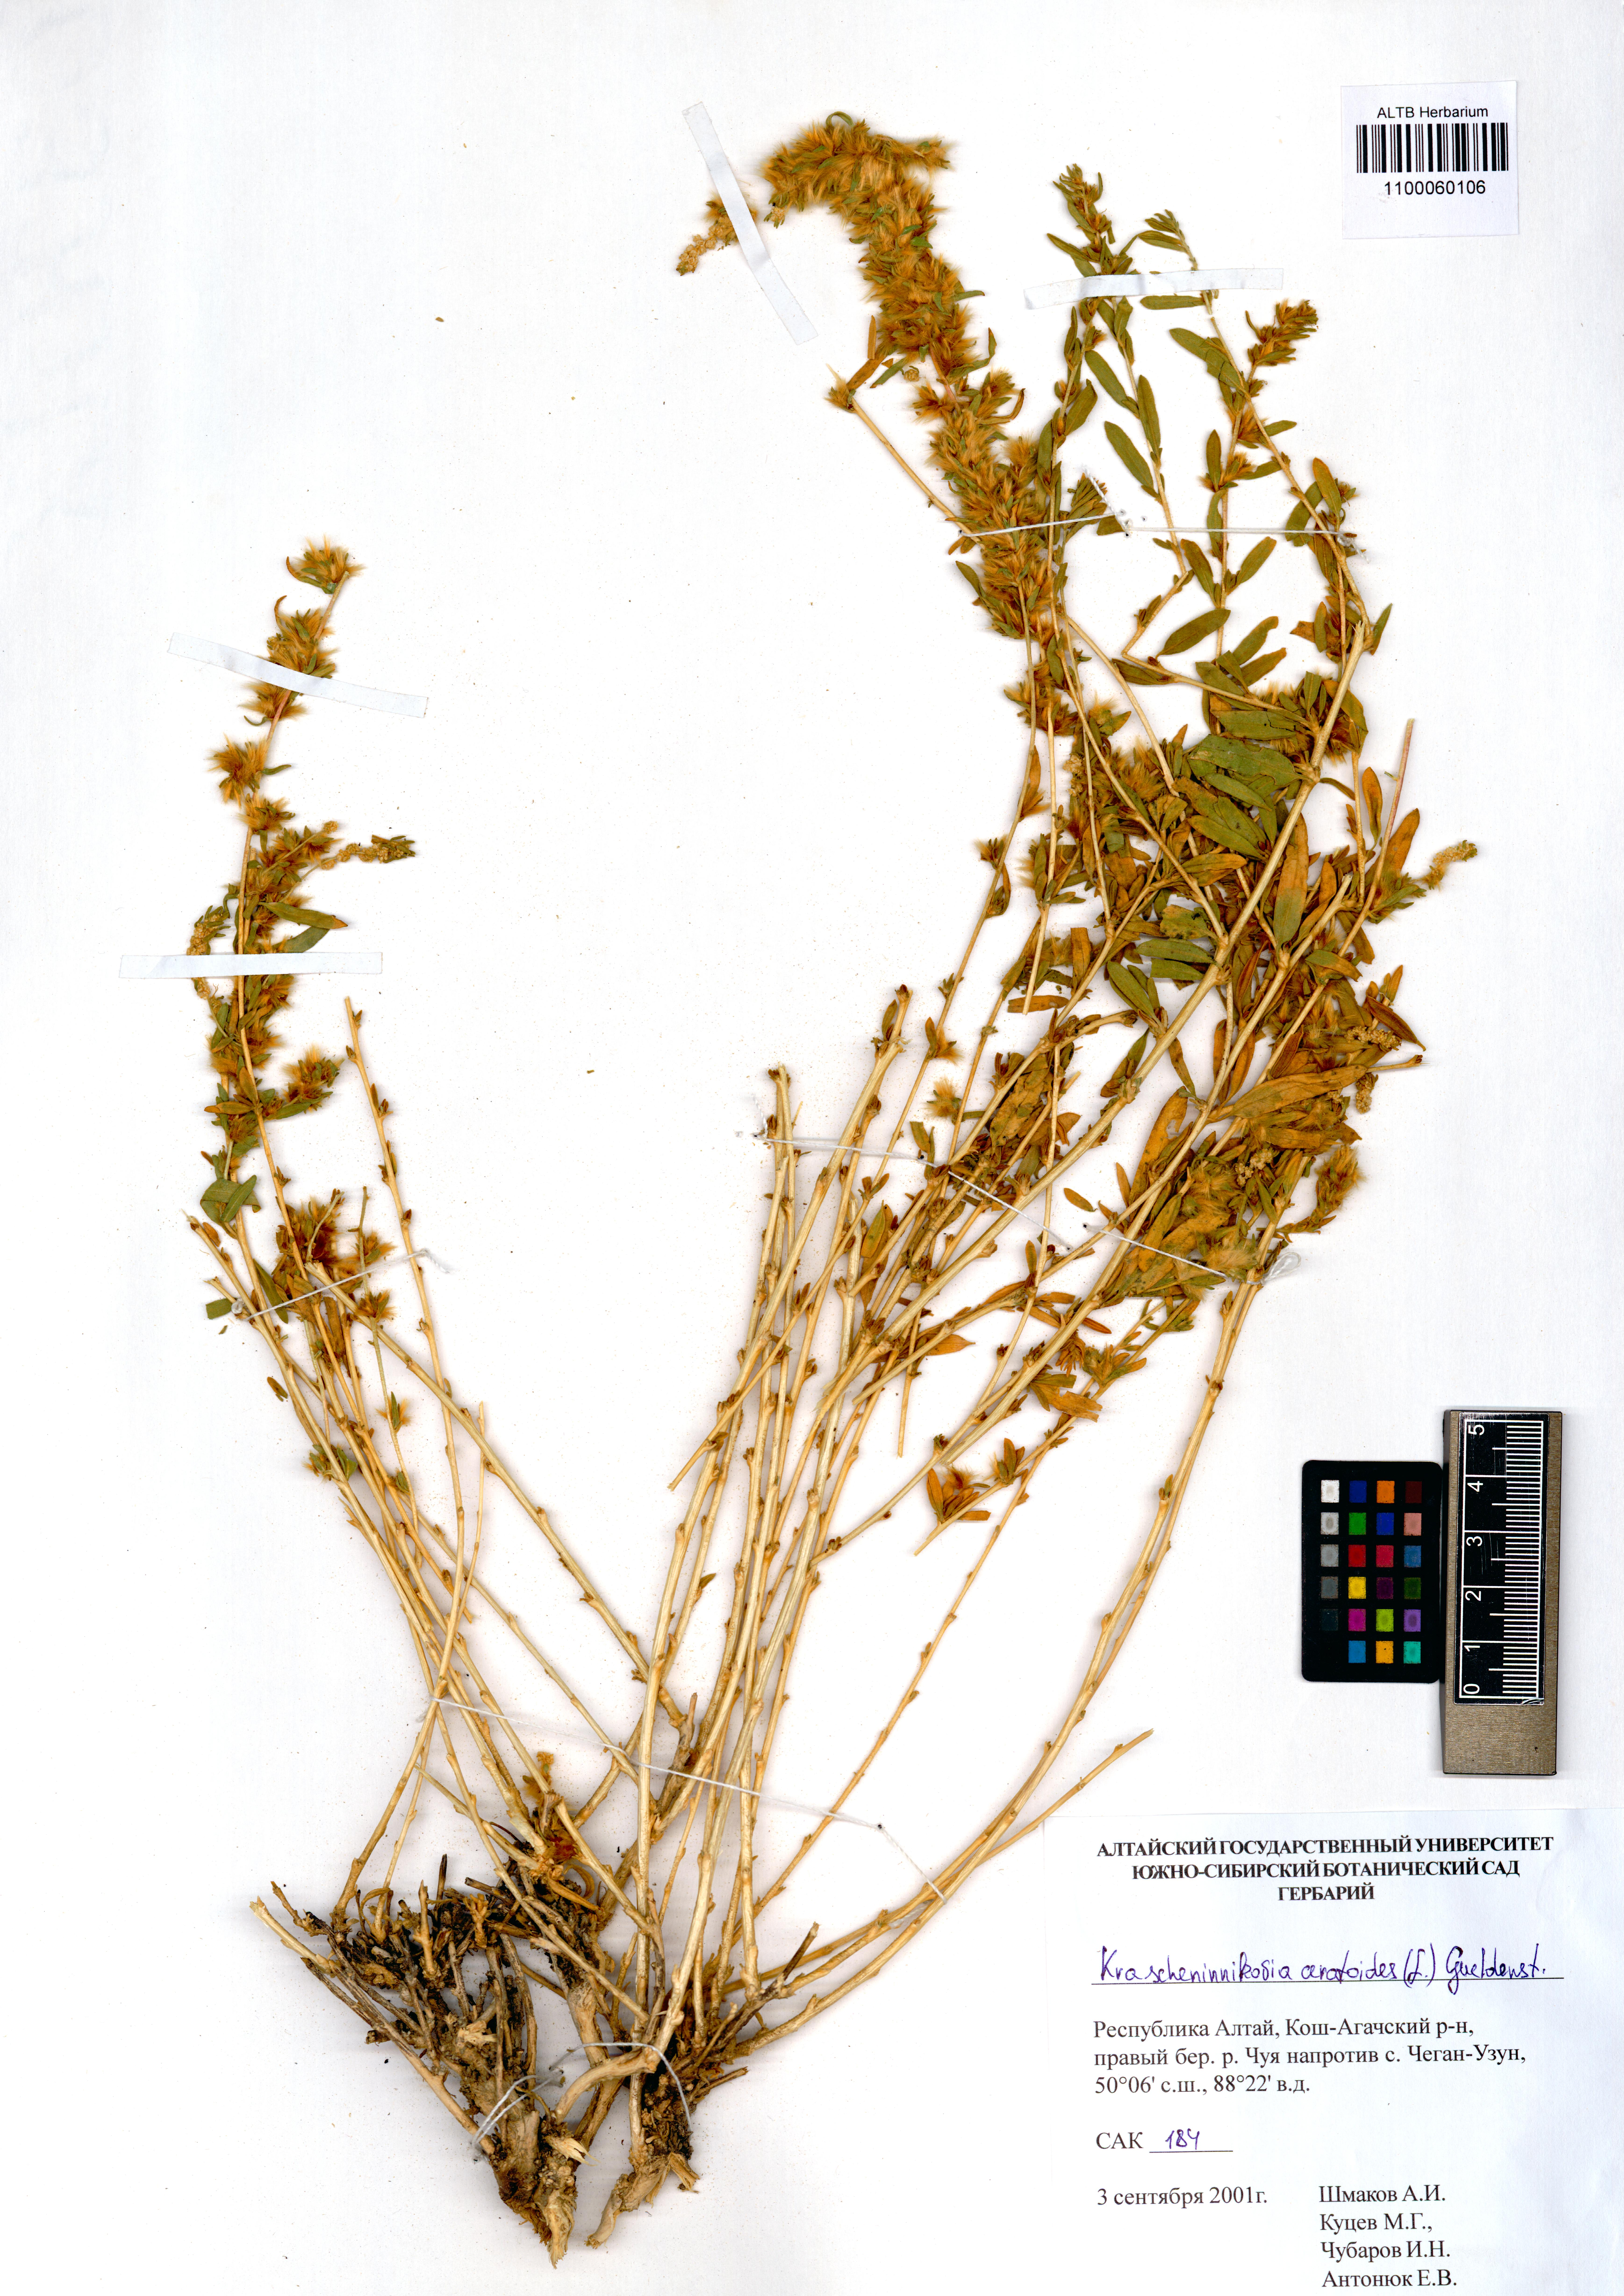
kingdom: Plantae
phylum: Tracheophyta
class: Magnoliopsida
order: Caryophyllales
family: Amaranthaceae
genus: Krascheninnikovia
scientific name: Krascheninnikovia ceratoides
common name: Pamirian winterfat
